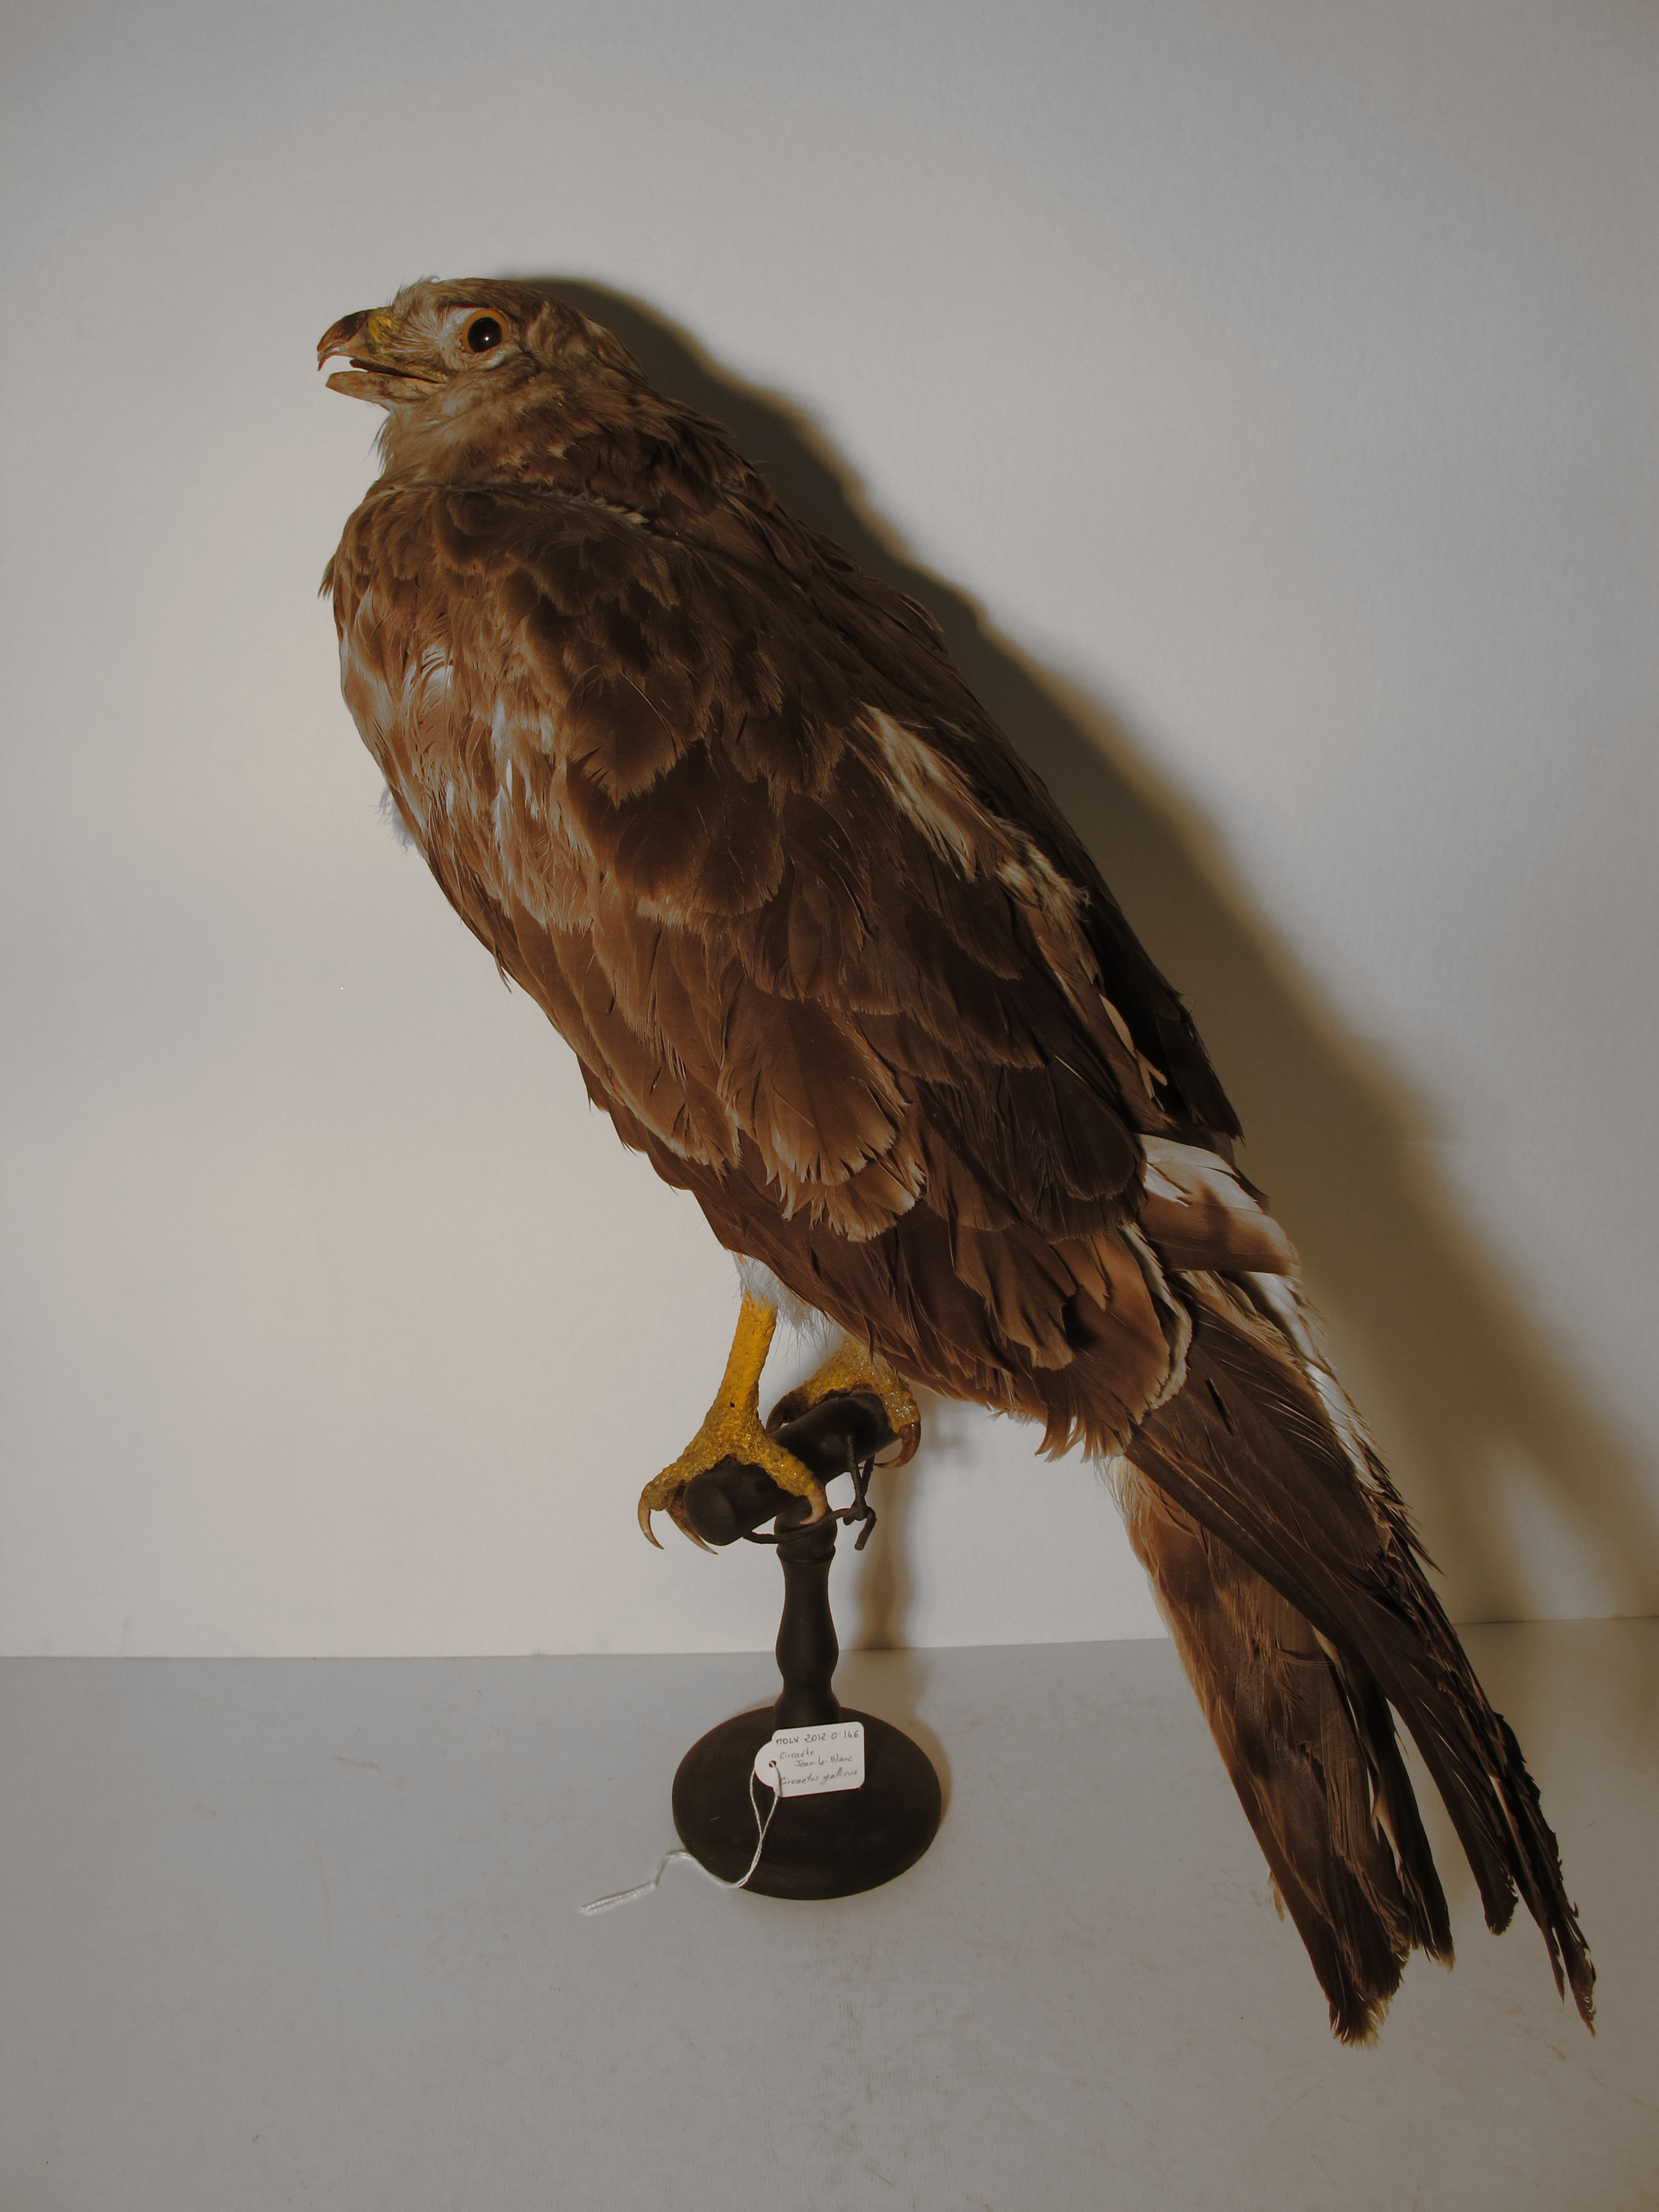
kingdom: Animalia
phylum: Chordata
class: Aves
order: Accipitriformes
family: Accipitridae
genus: Circaetus
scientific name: Circaetus gallicus
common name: Short-toed Snake-eagle
